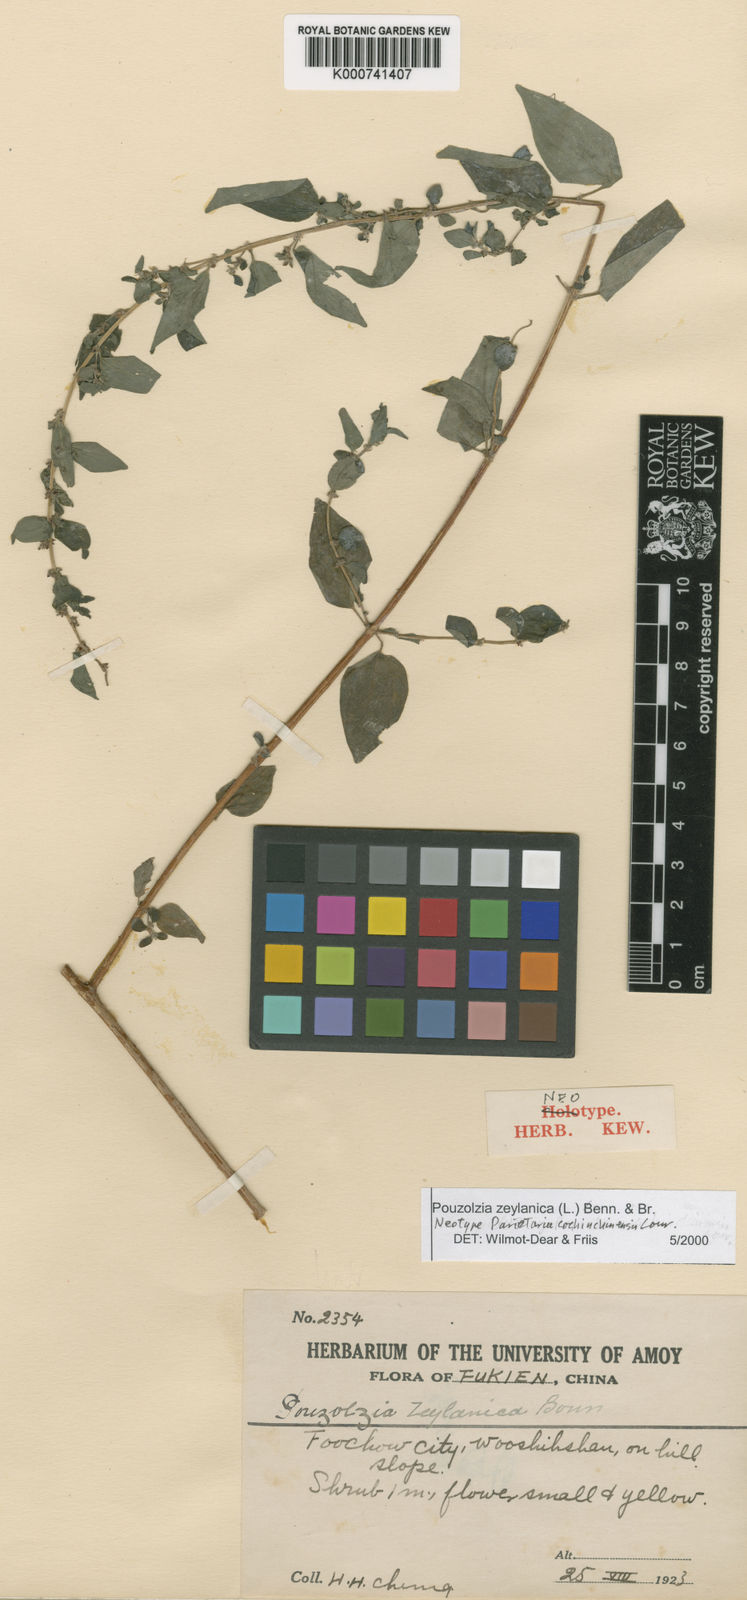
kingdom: Plantae
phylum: Tracheophyta
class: Magnoliopsida
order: Rosales
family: Urticaceae
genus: Pouzolzia
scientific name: Pouzolzia zeylanica
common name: Graceful pouzolzsbush
